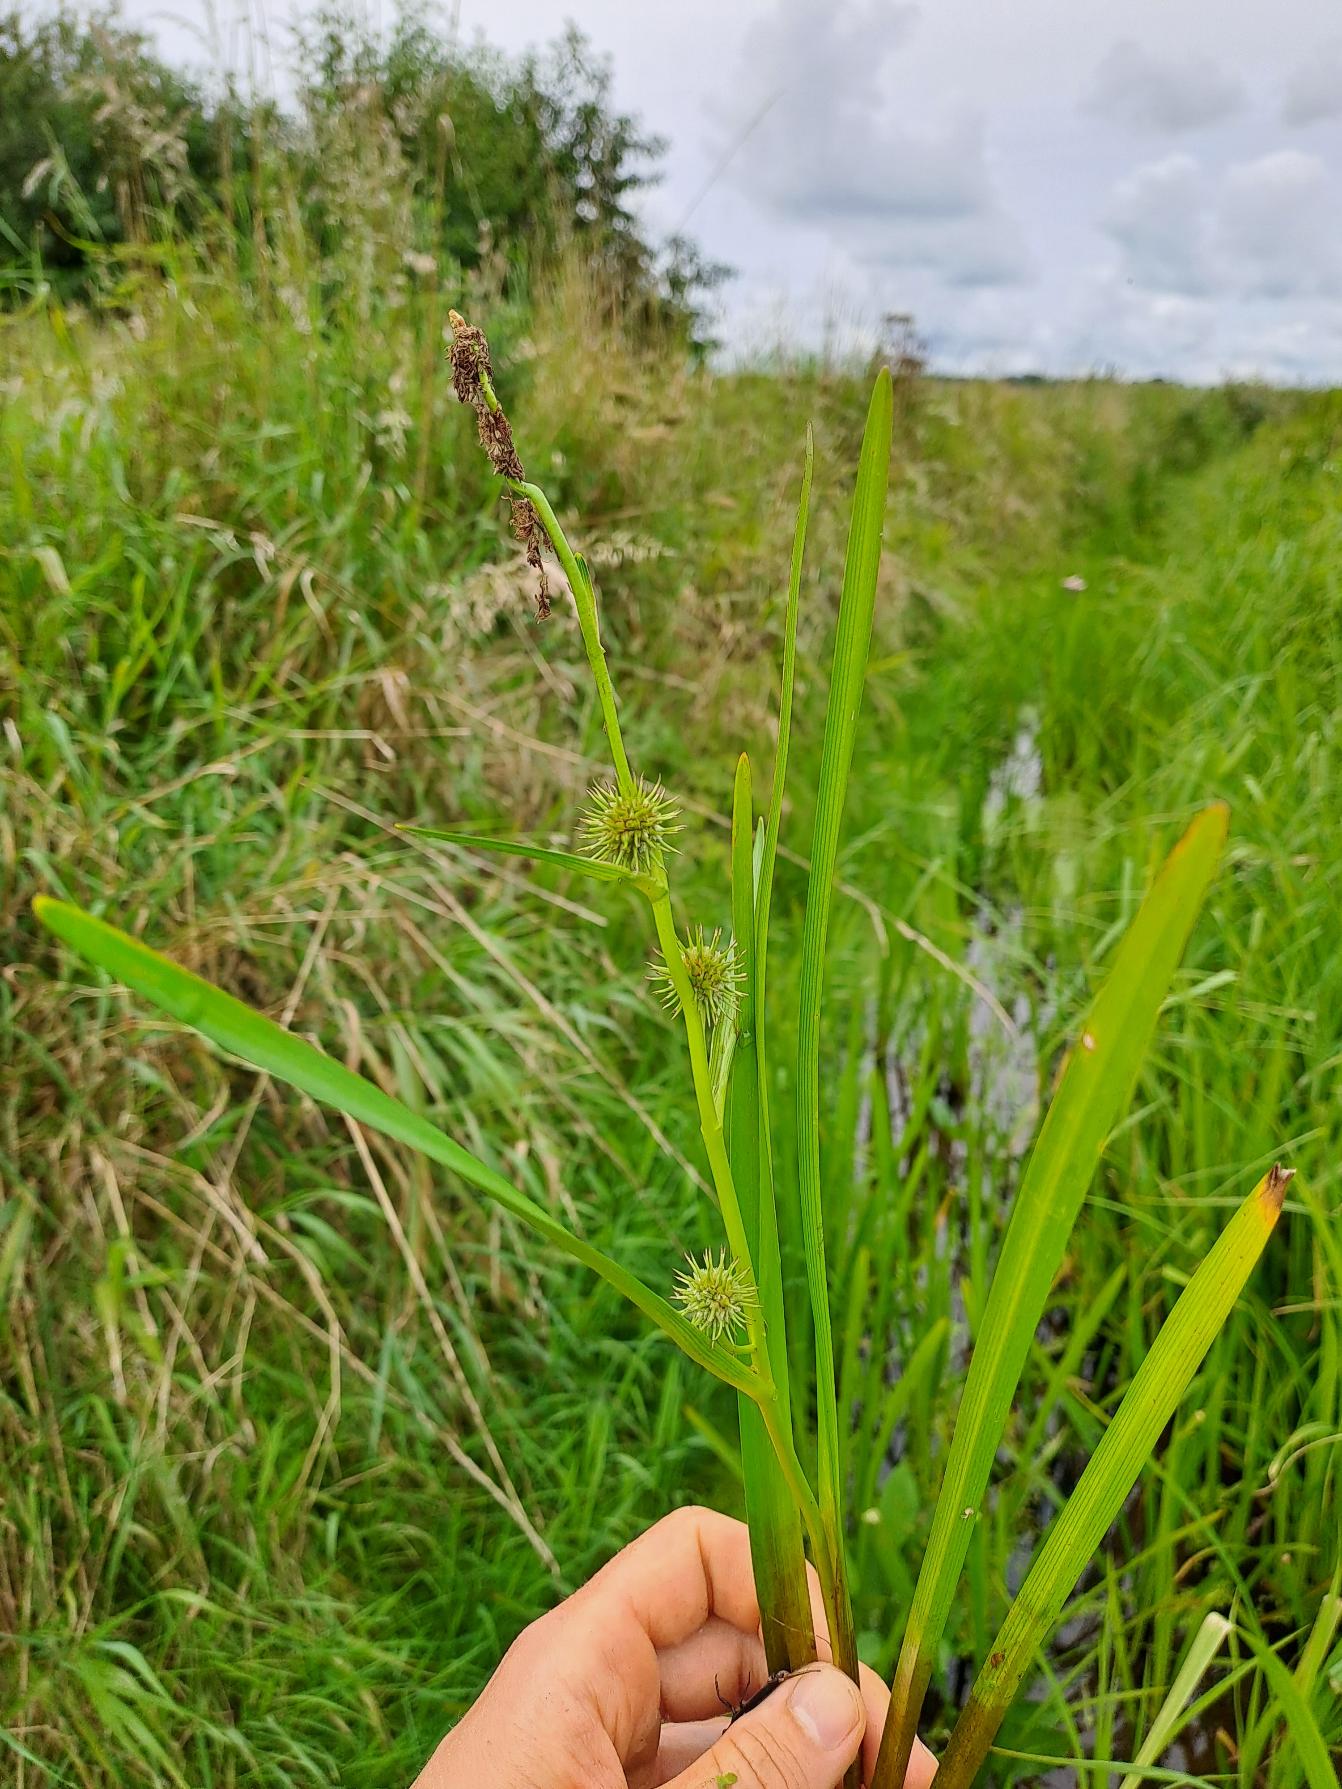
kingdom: Plantae
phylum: Tracheophyta
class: Liliopsida
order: Poales
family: Typhaceae
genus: Sparganium
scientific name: Sparganium emersum
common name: Enkelt pindsvineknop
